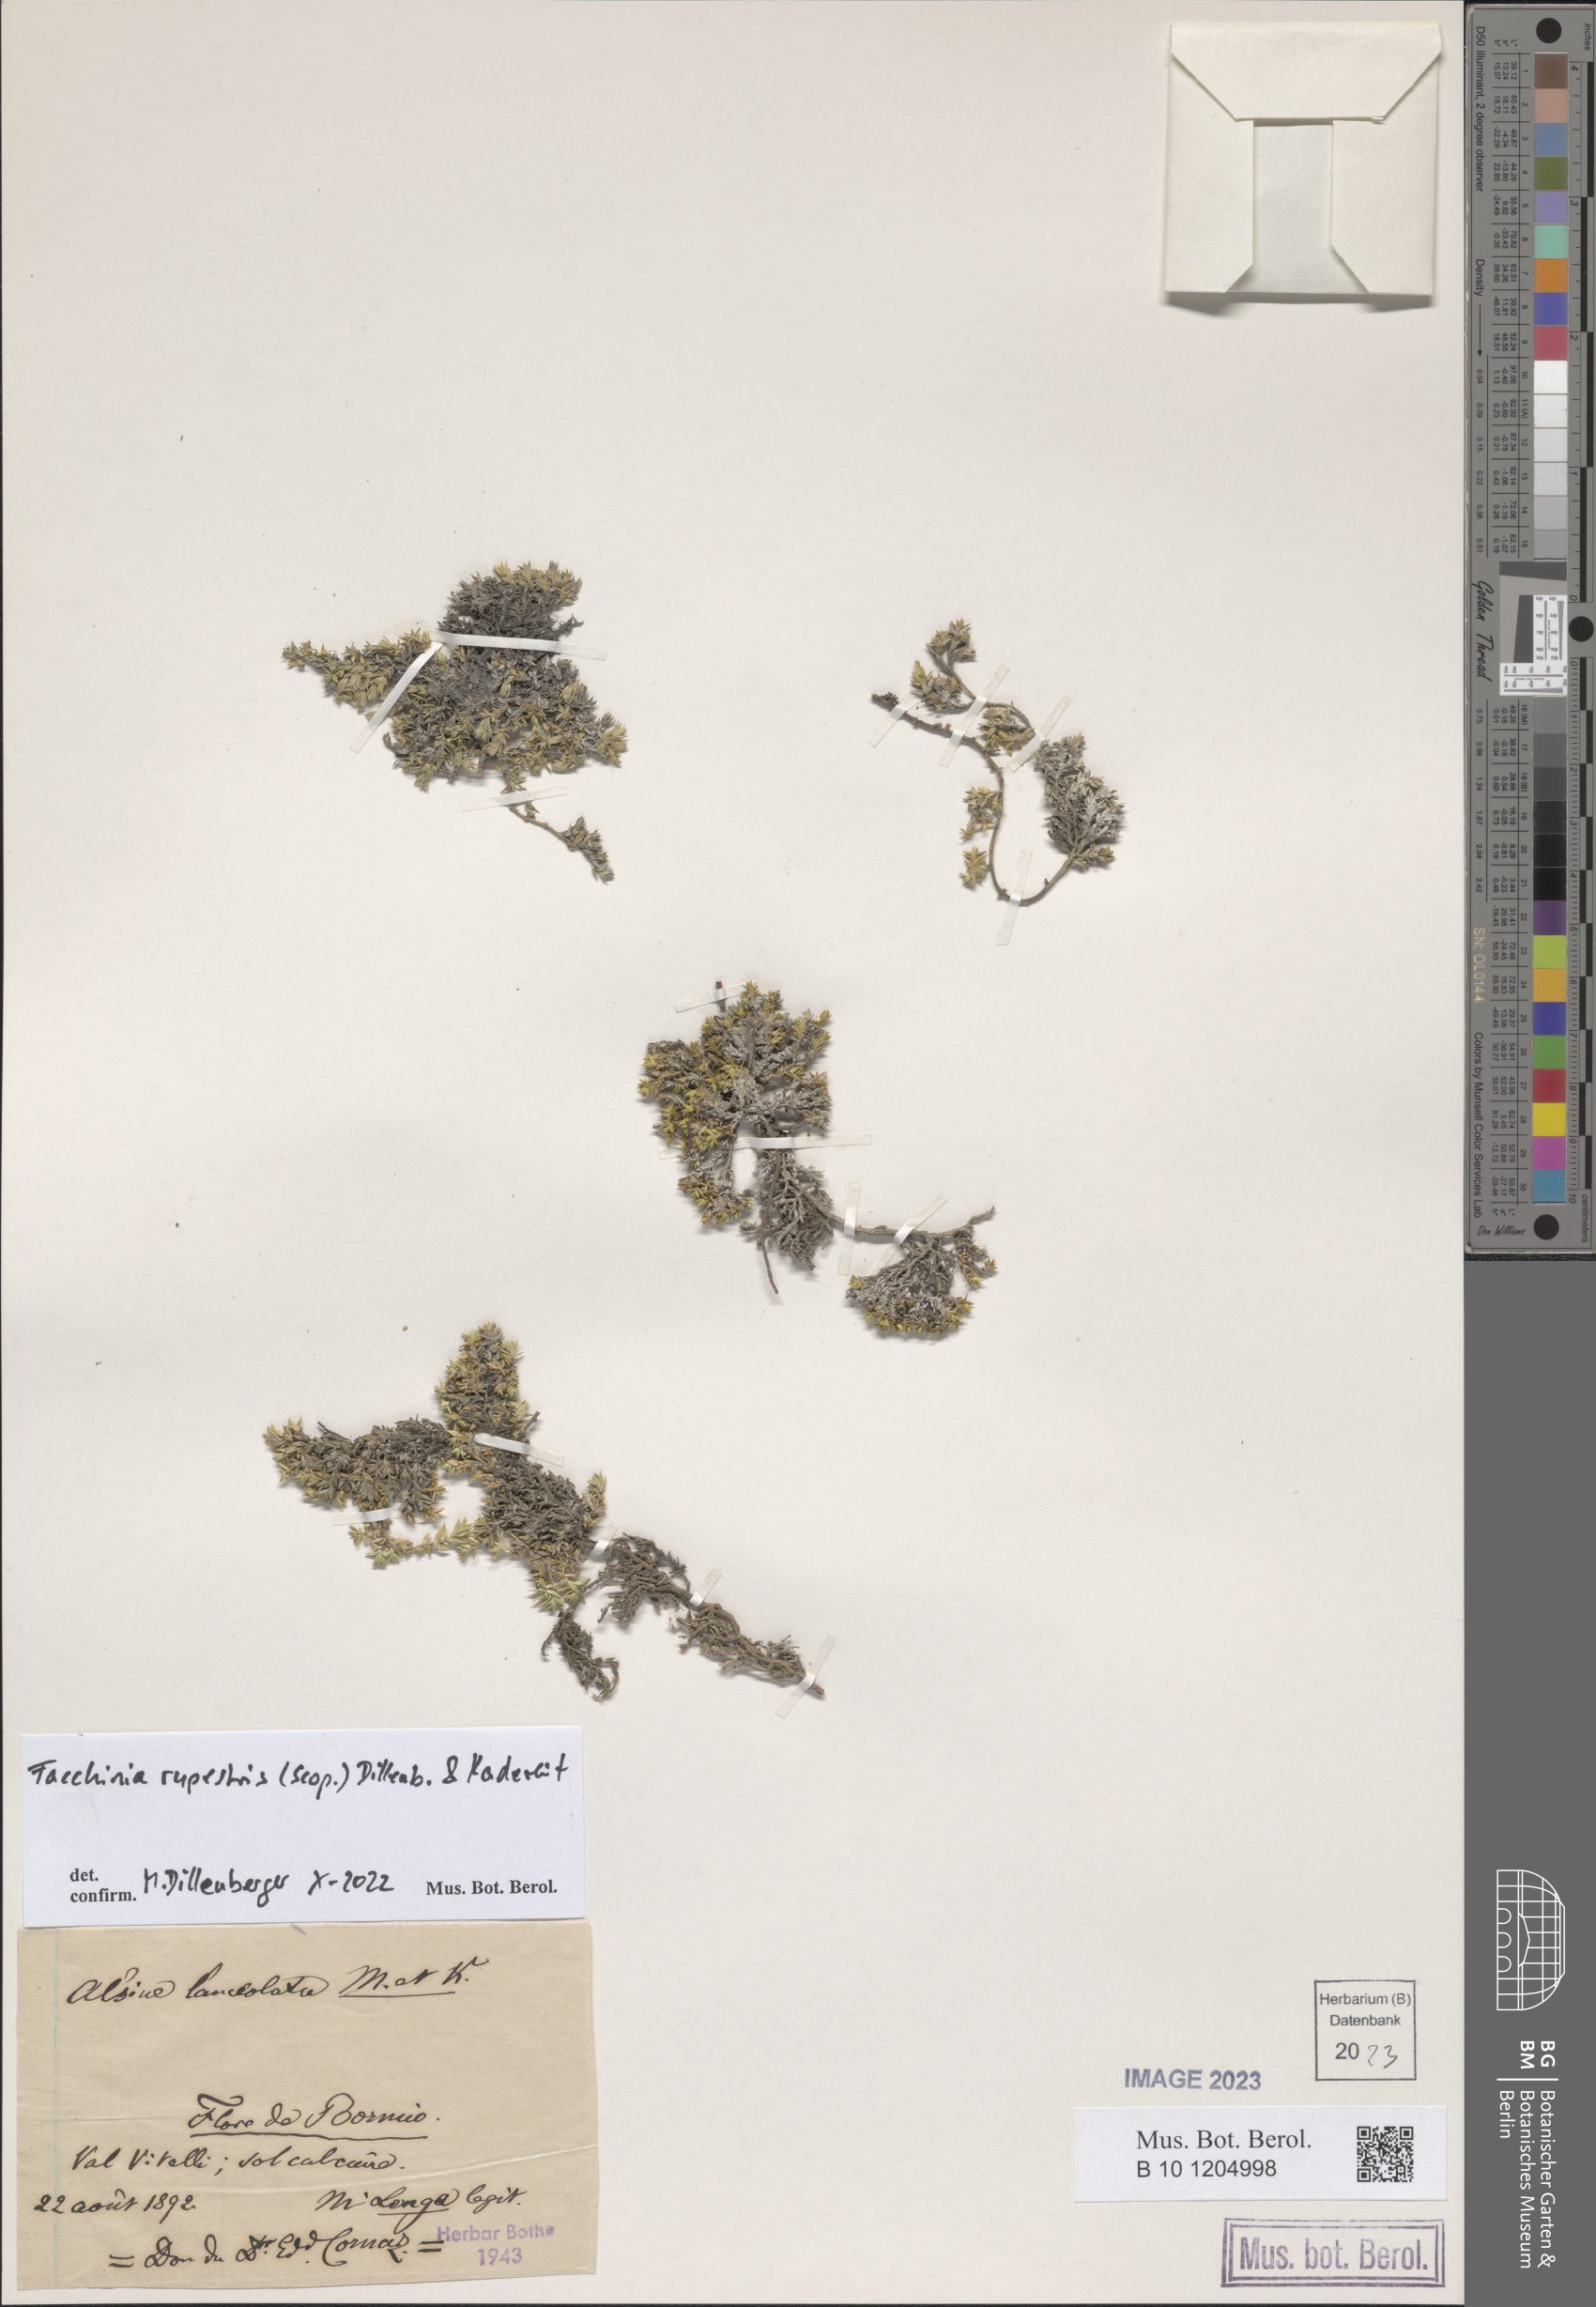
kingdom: Plantae
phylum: Tracheophyta
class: Magnoliopsida
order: Caryophyllales
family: Caryophyllaceae
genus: Facchinia
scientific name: Facchinia rupestris
